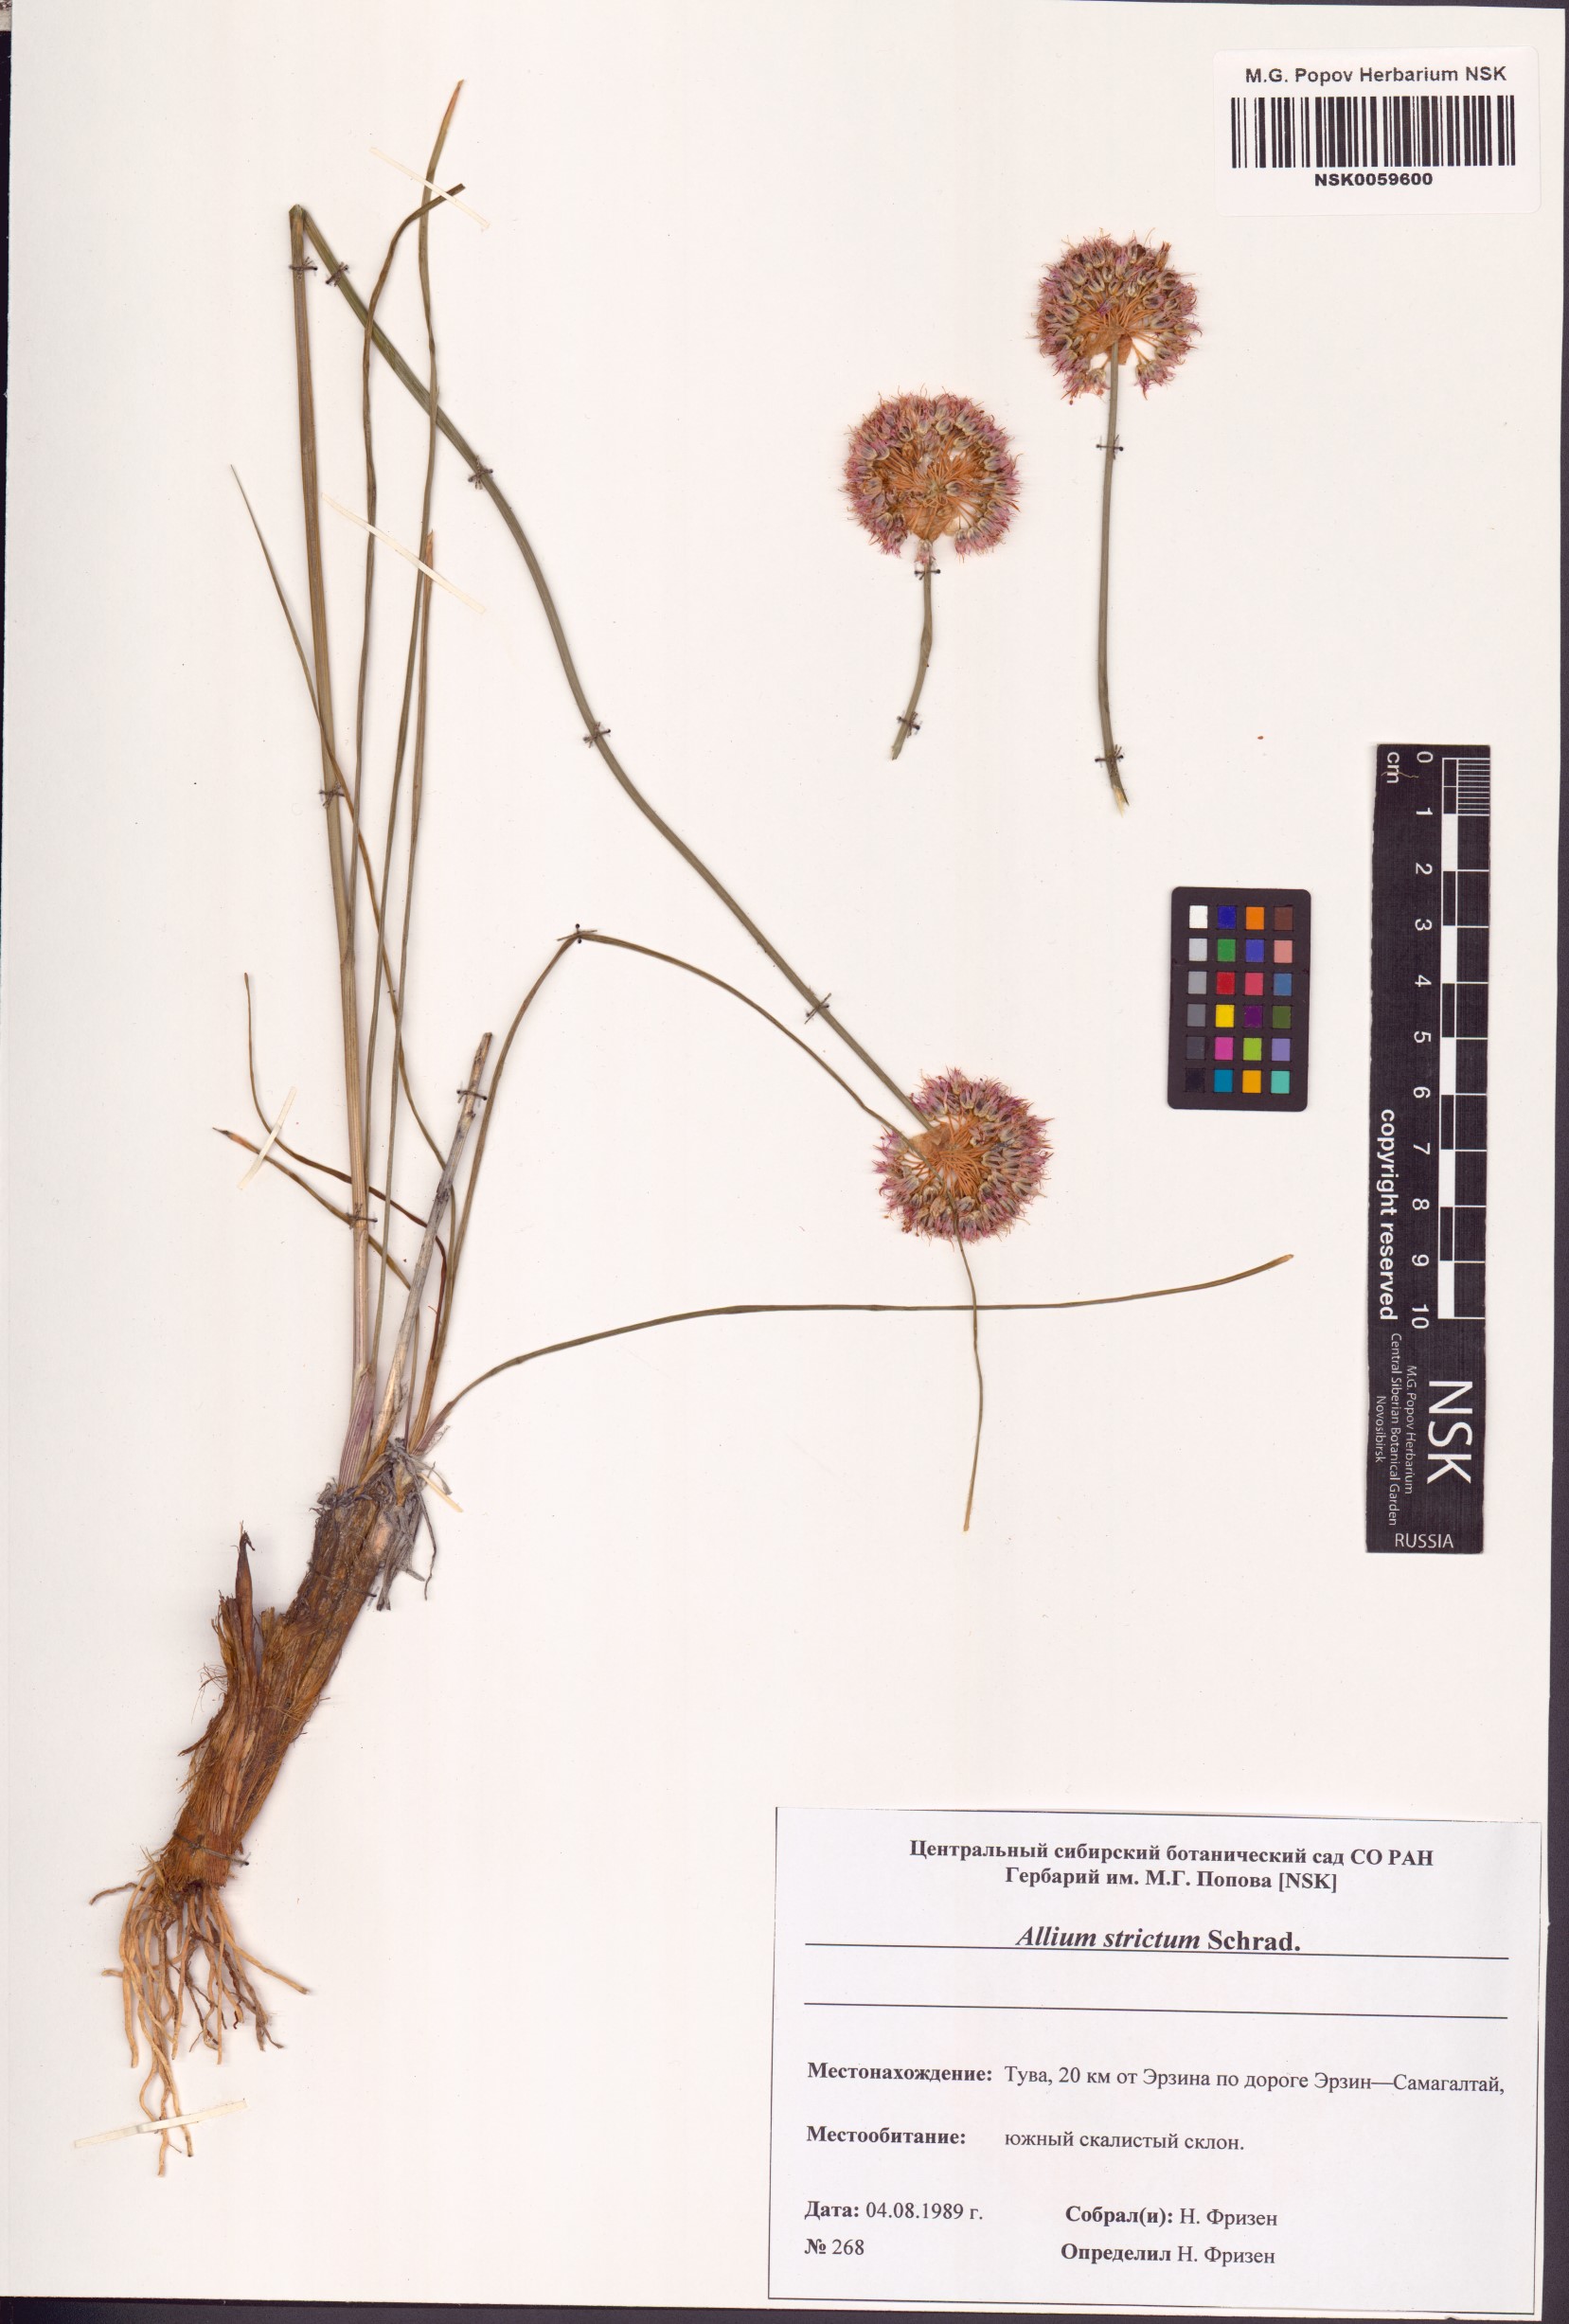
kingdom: Plantae
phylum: Tracheophyta
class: Liliopsida
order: Asparagales
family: Amaryllidaceae
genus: Allium
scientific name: Allium strictum
